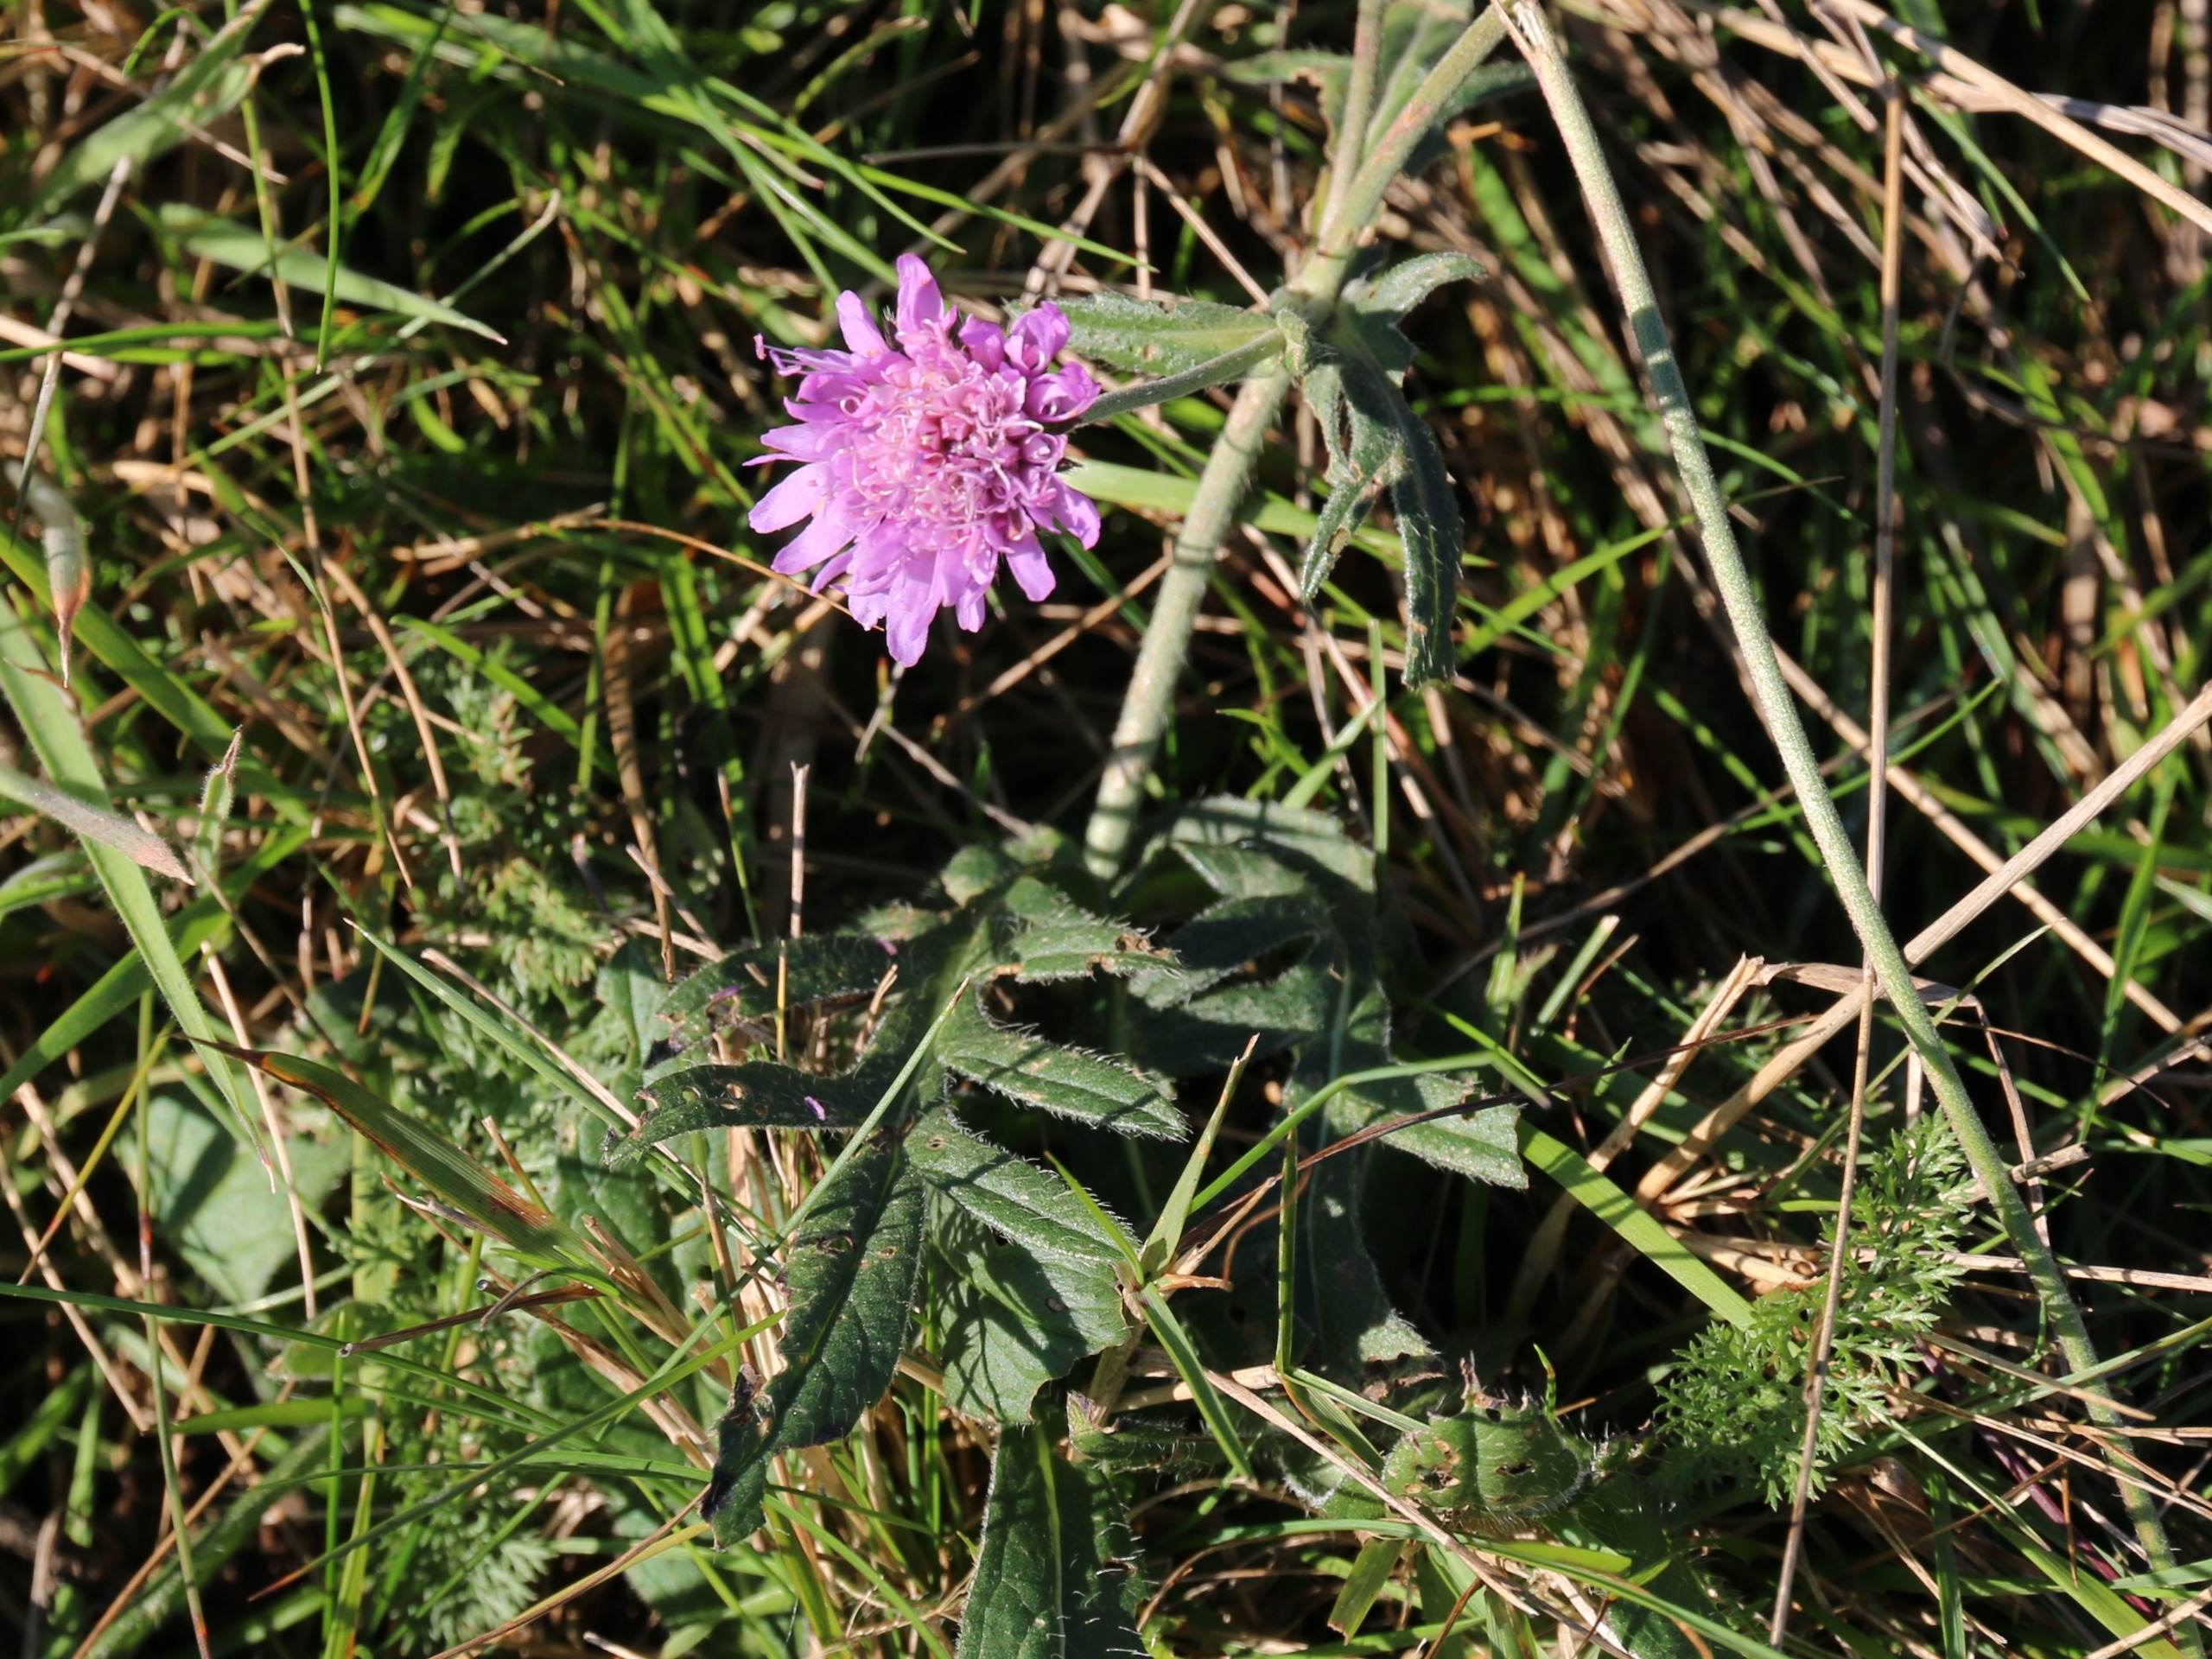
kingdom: Plantae
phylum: Tracheophyta
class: Magnoliopsida
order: Dipsacales
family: Caprifoliaceae
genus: Knautia
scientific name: Knautia arvensis
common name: Blåhat
